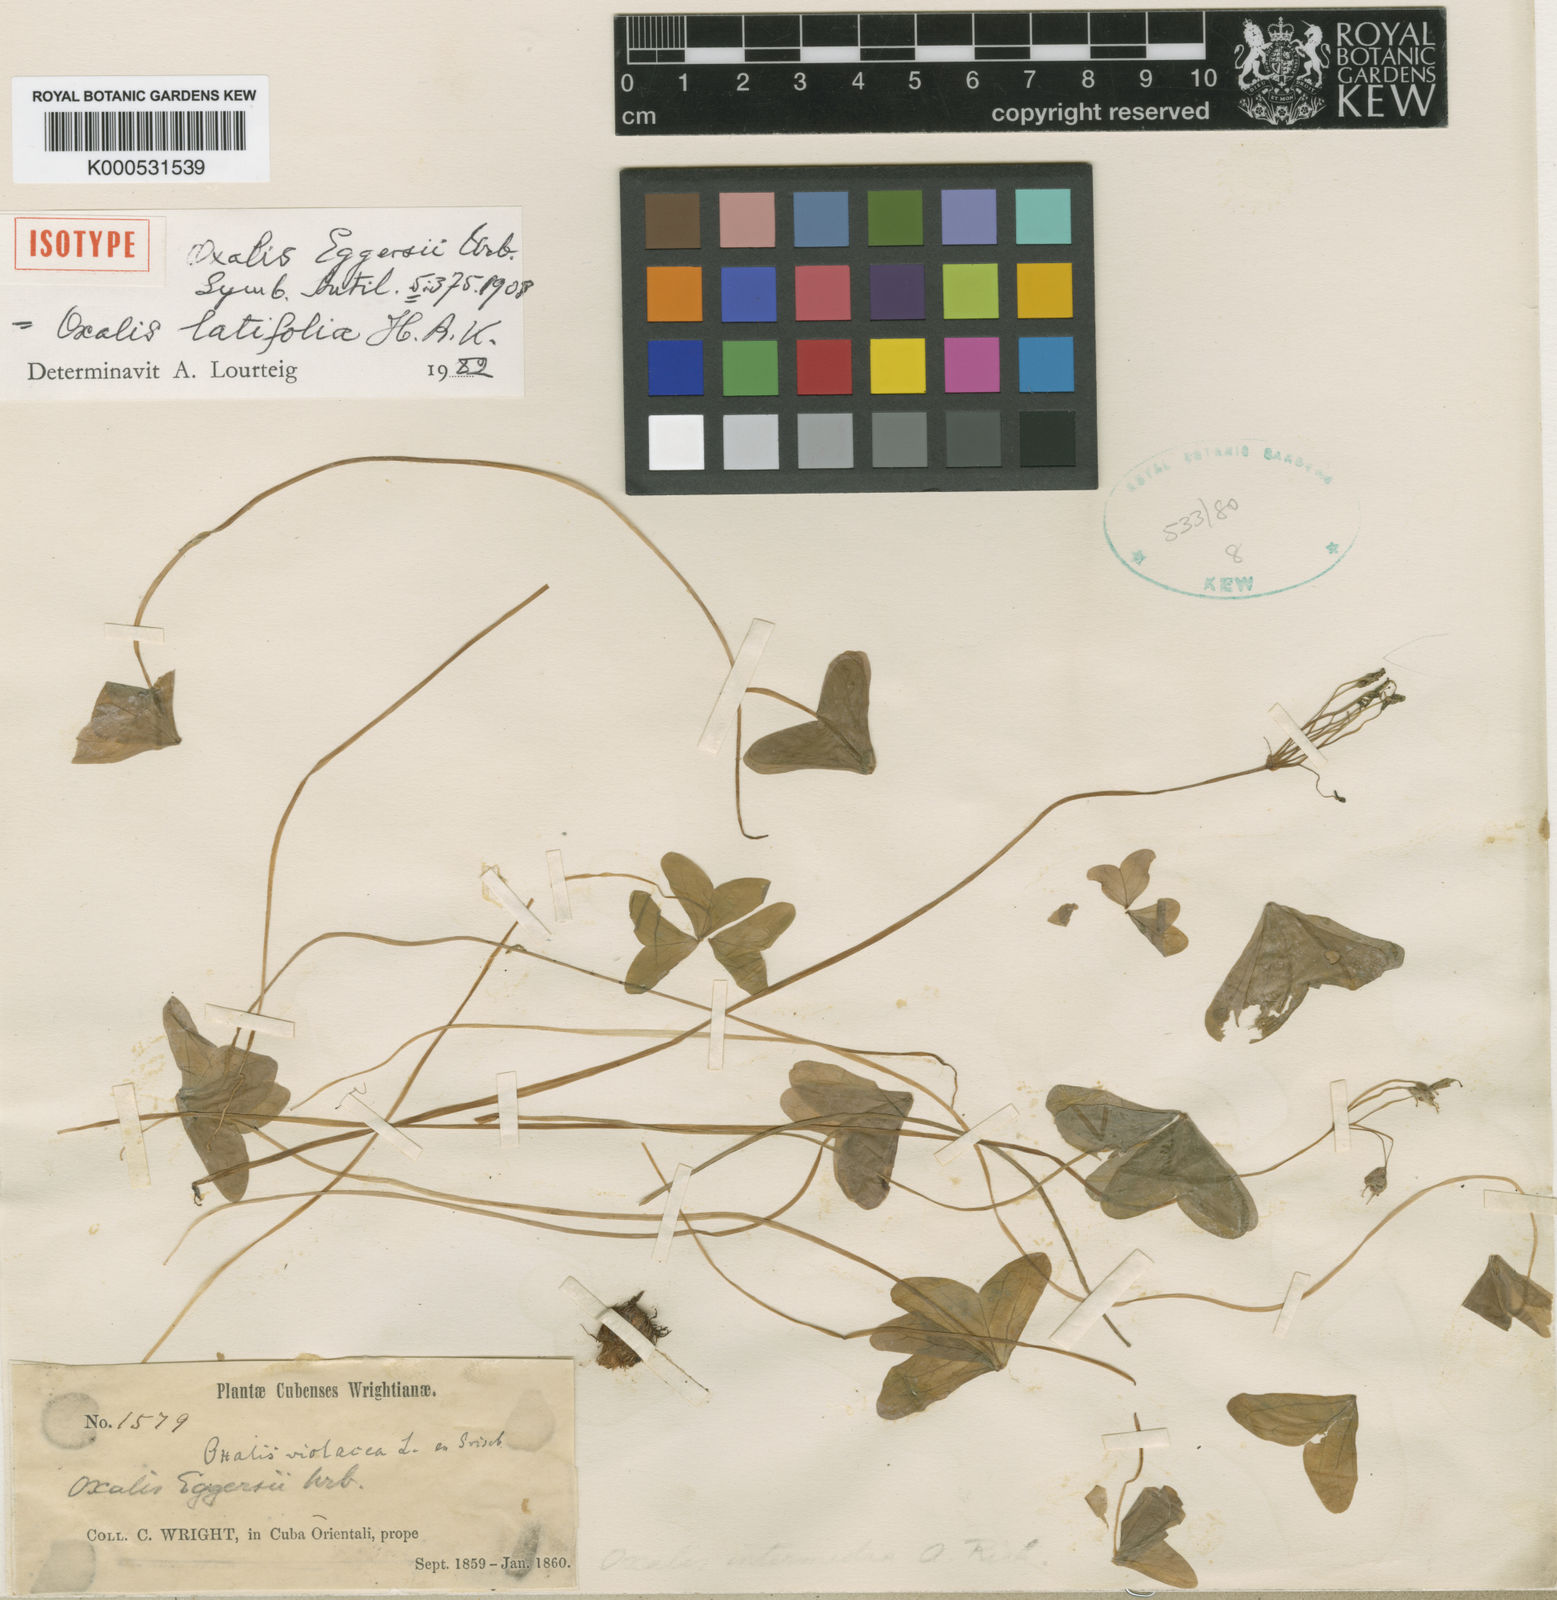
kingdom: Plantae
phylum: Tracheophyta
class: Magnoliopsida
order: Oxalidales
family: Oxalidaceae
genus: Oxalis
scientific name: Oxalis latifolia
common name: Garden pink-sorrel
